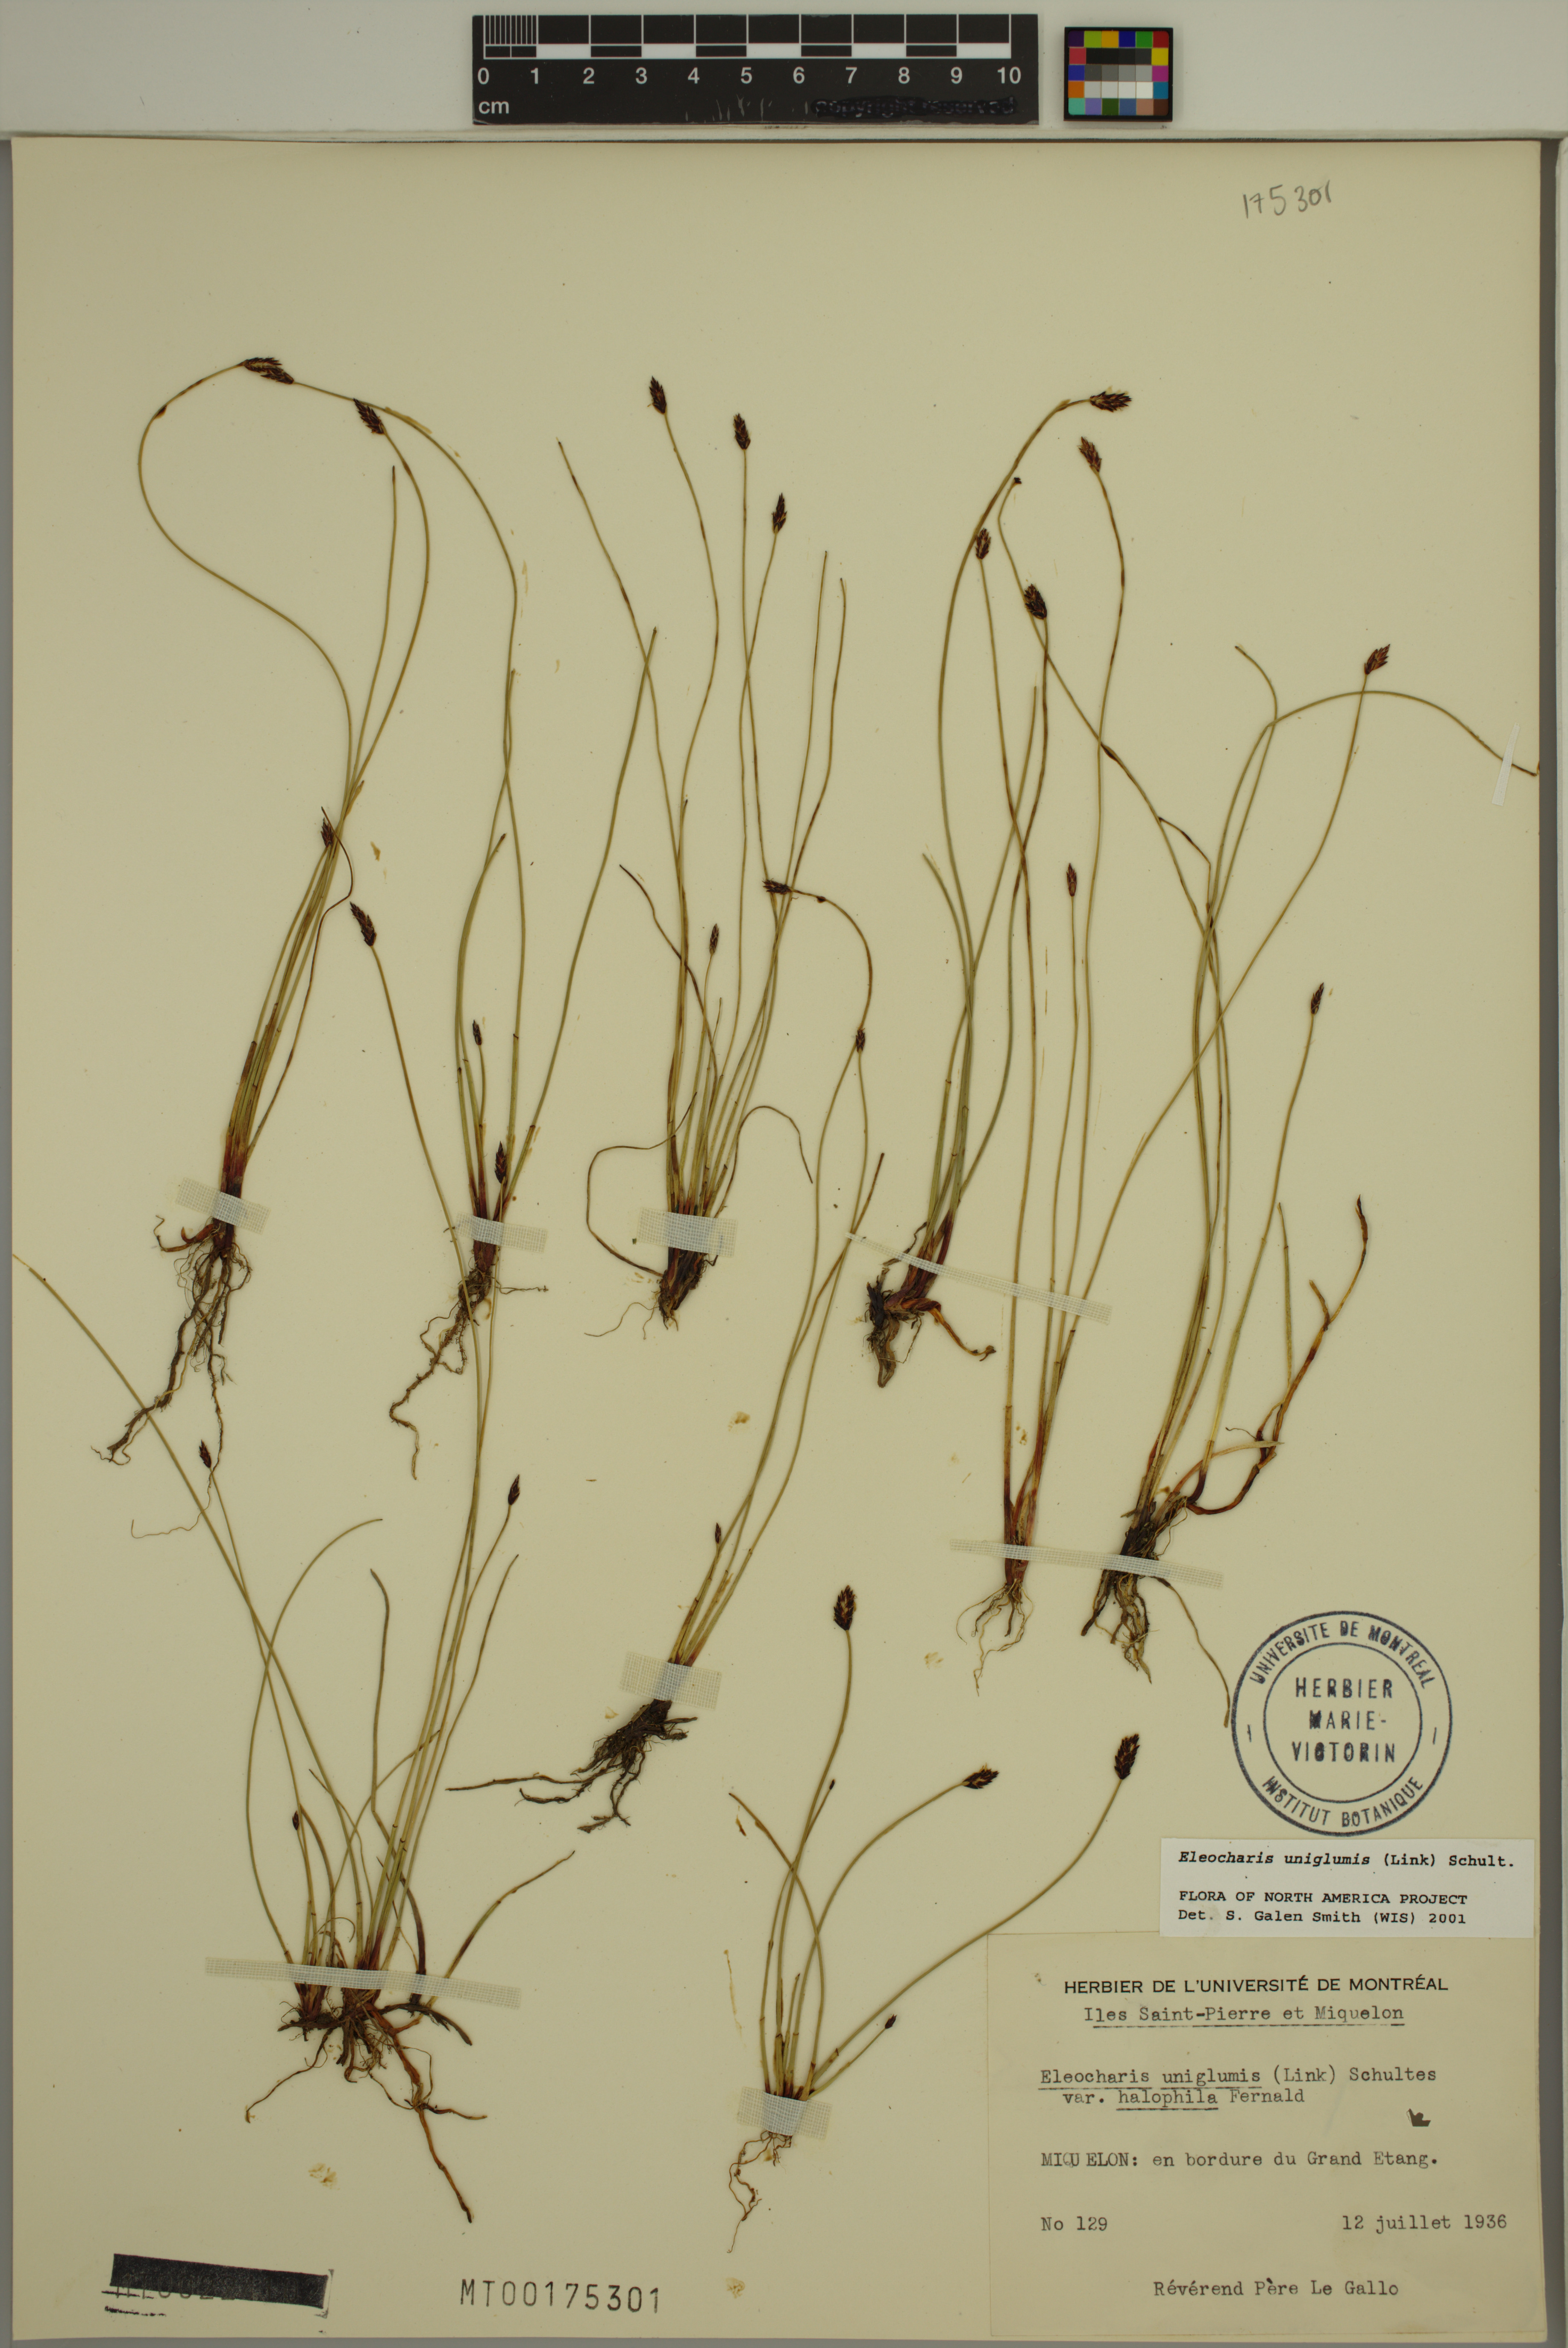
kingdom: Plantae
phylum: Tracheophyta
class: Liliopsida
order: Poales
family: Cyperaceae
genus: Eleocharis
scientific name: Eleocharis uniglumis
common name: Slender spike-rush
